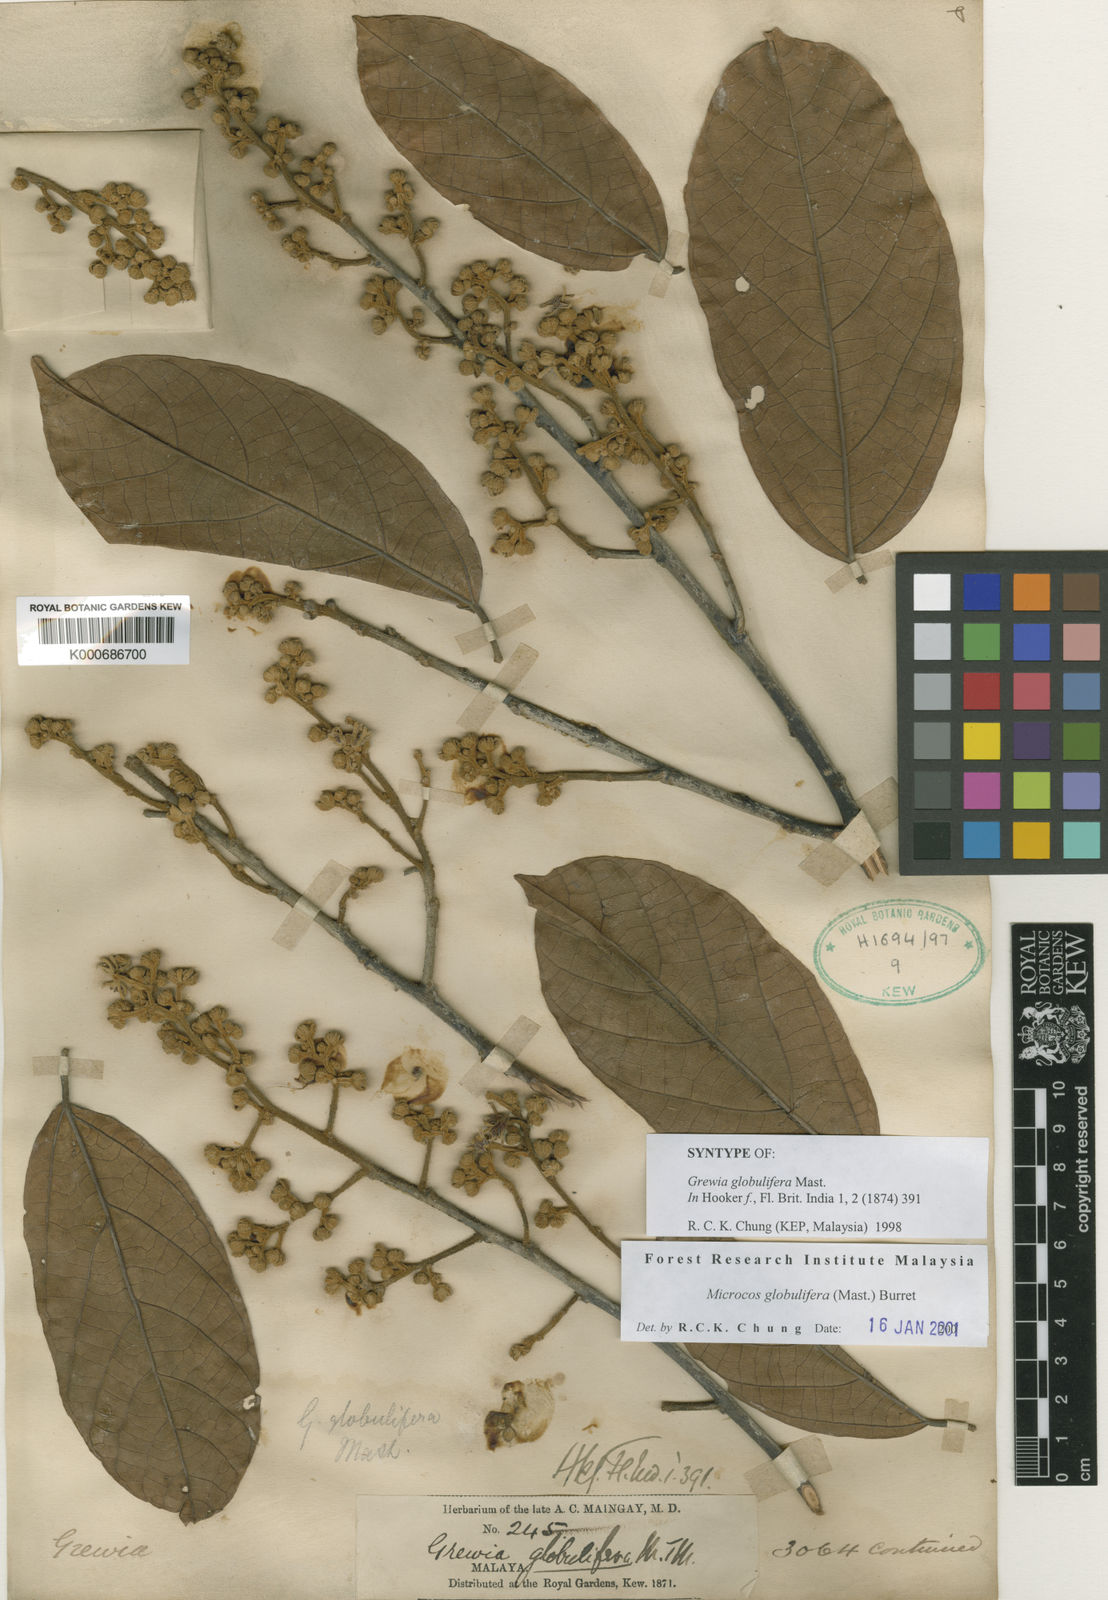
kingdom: Plantae
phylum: Tracheophyta
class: Magnoliopsida
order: Malvales
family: Malvaceae
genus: Microcos
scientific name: Microcos globulifera
